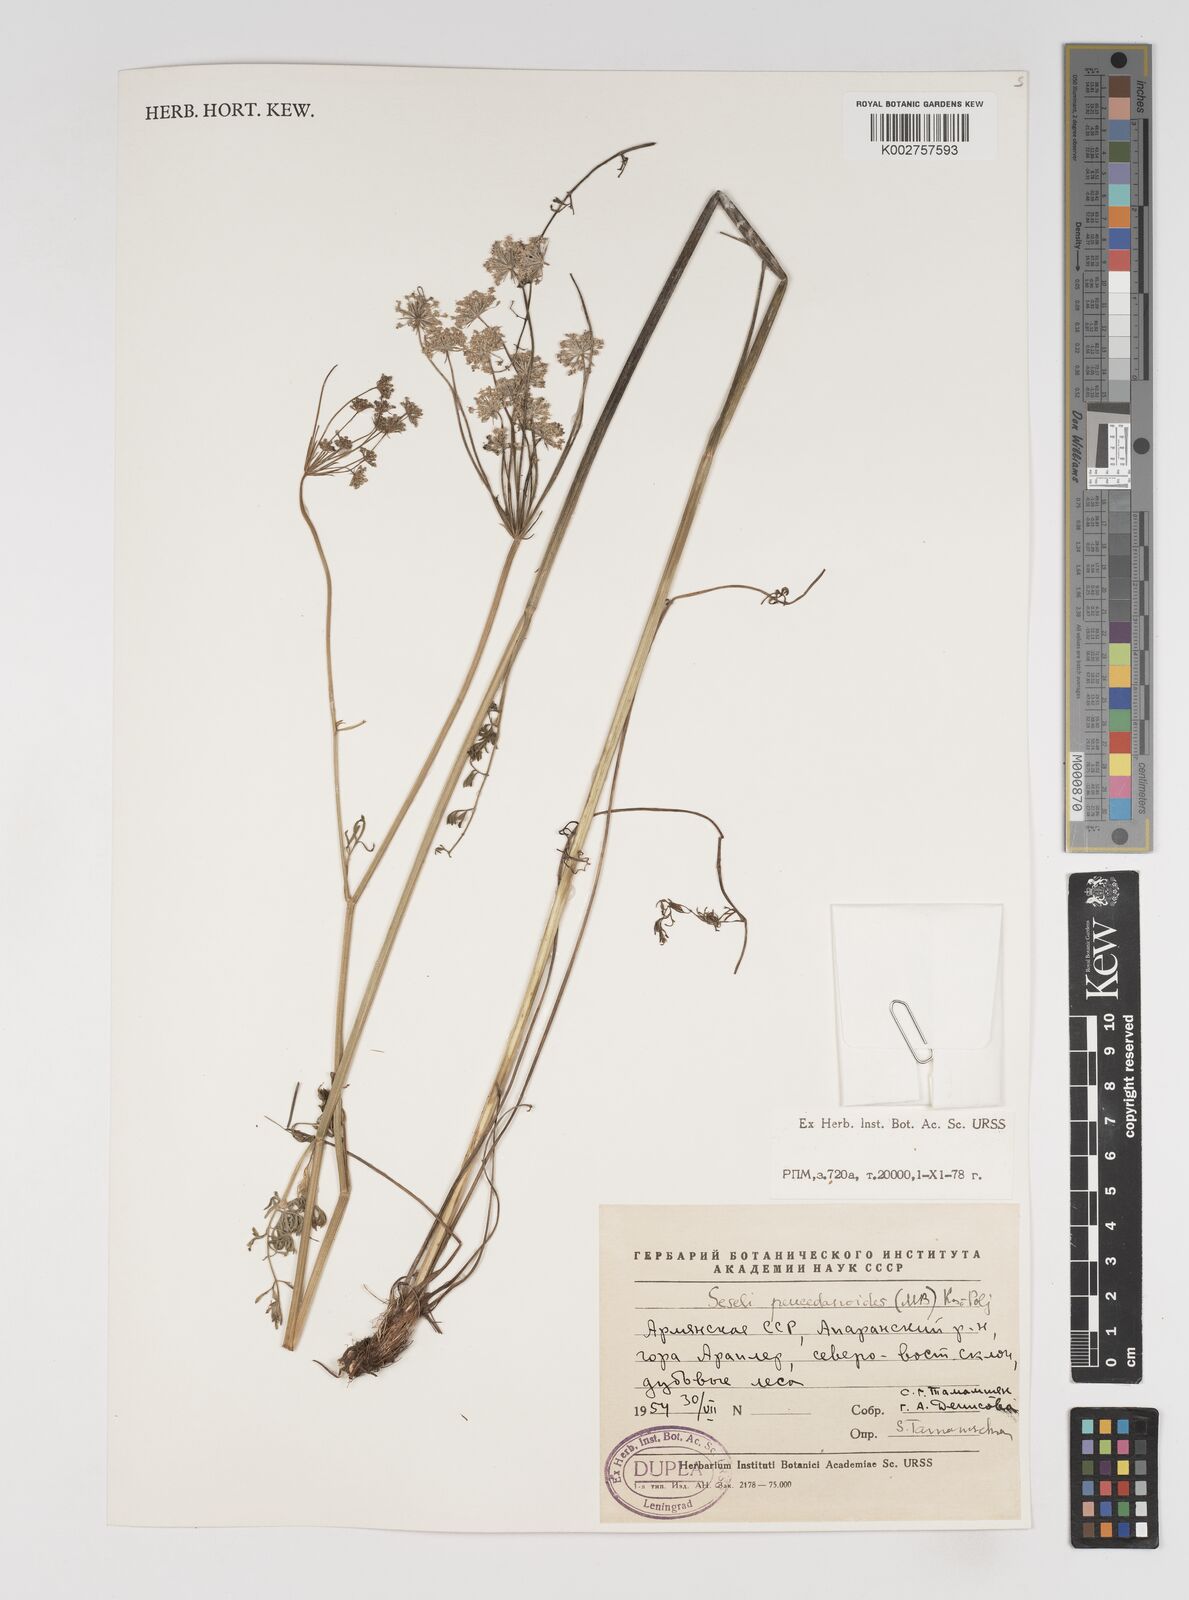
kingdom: Plantae
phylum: Tracheophyta
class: Magnoliopsida
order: Apiales
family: Apiaceae
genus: Gasparinia
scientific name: Gasparinia peucedanoides
